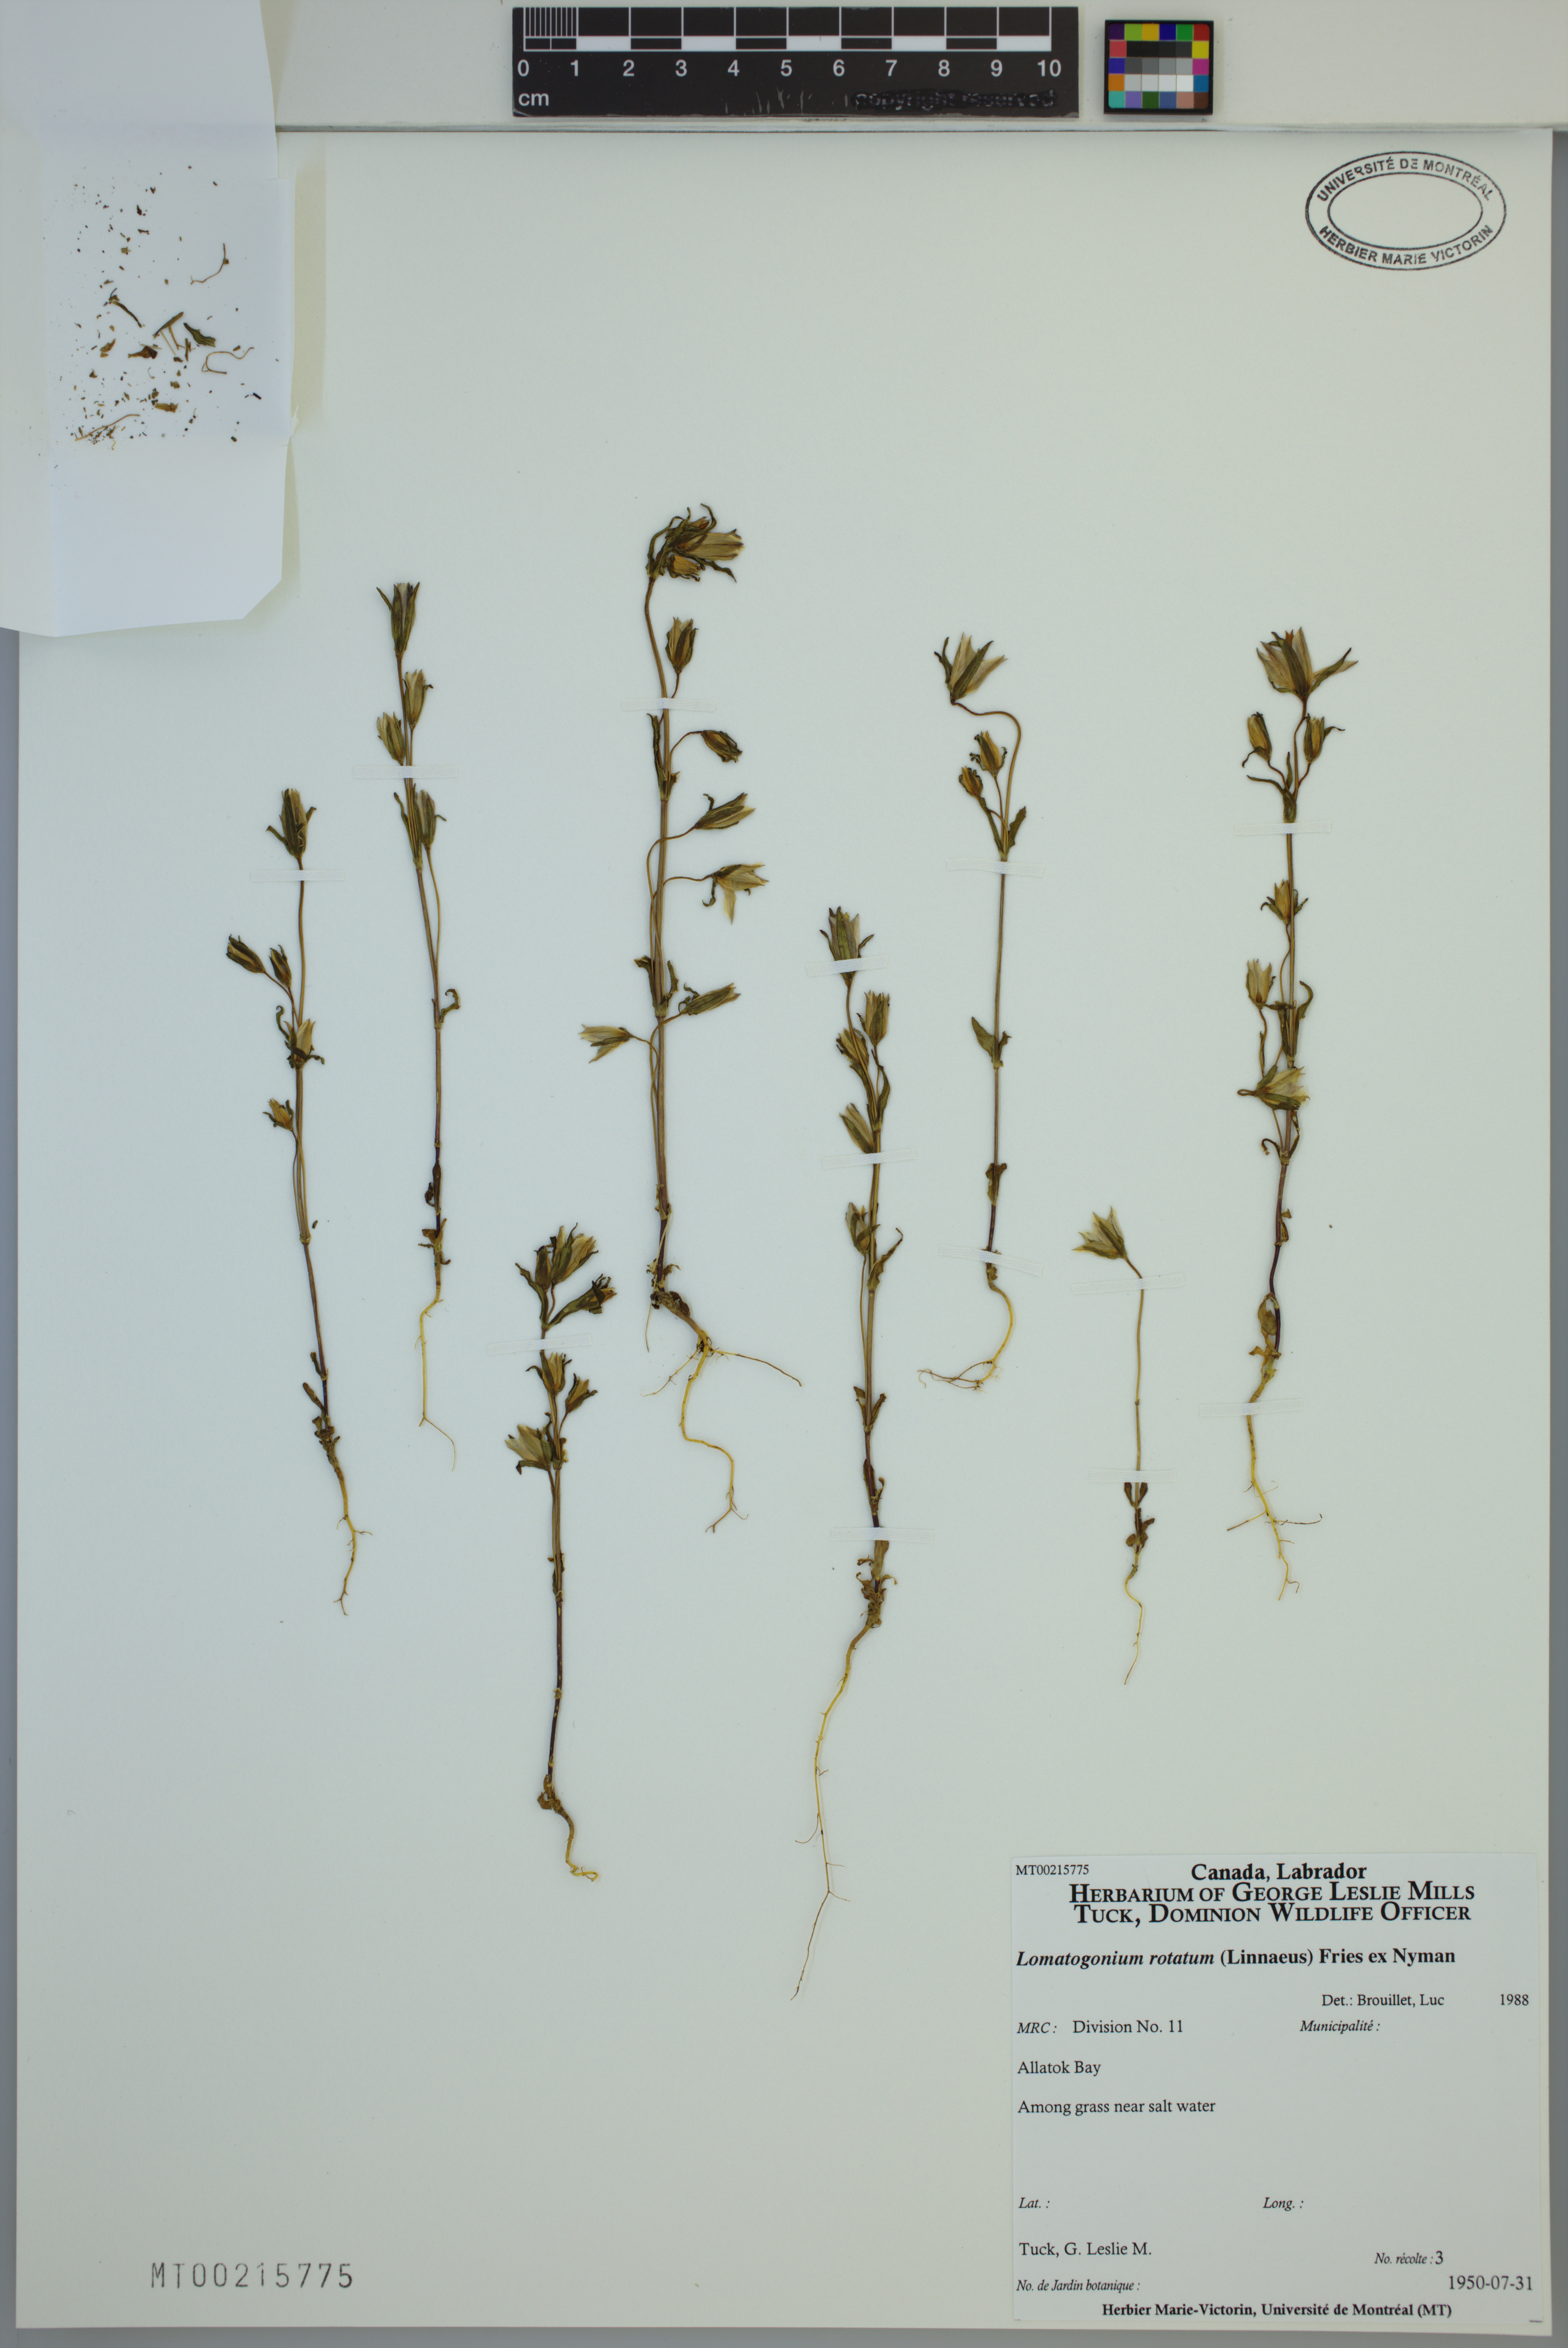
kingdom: Plantae
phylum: Tracheophyta
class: Magnoliopsida
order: Gentianales
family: Gentianaceae
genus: Lomatogonium
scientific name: Lomatogonium rotatum
